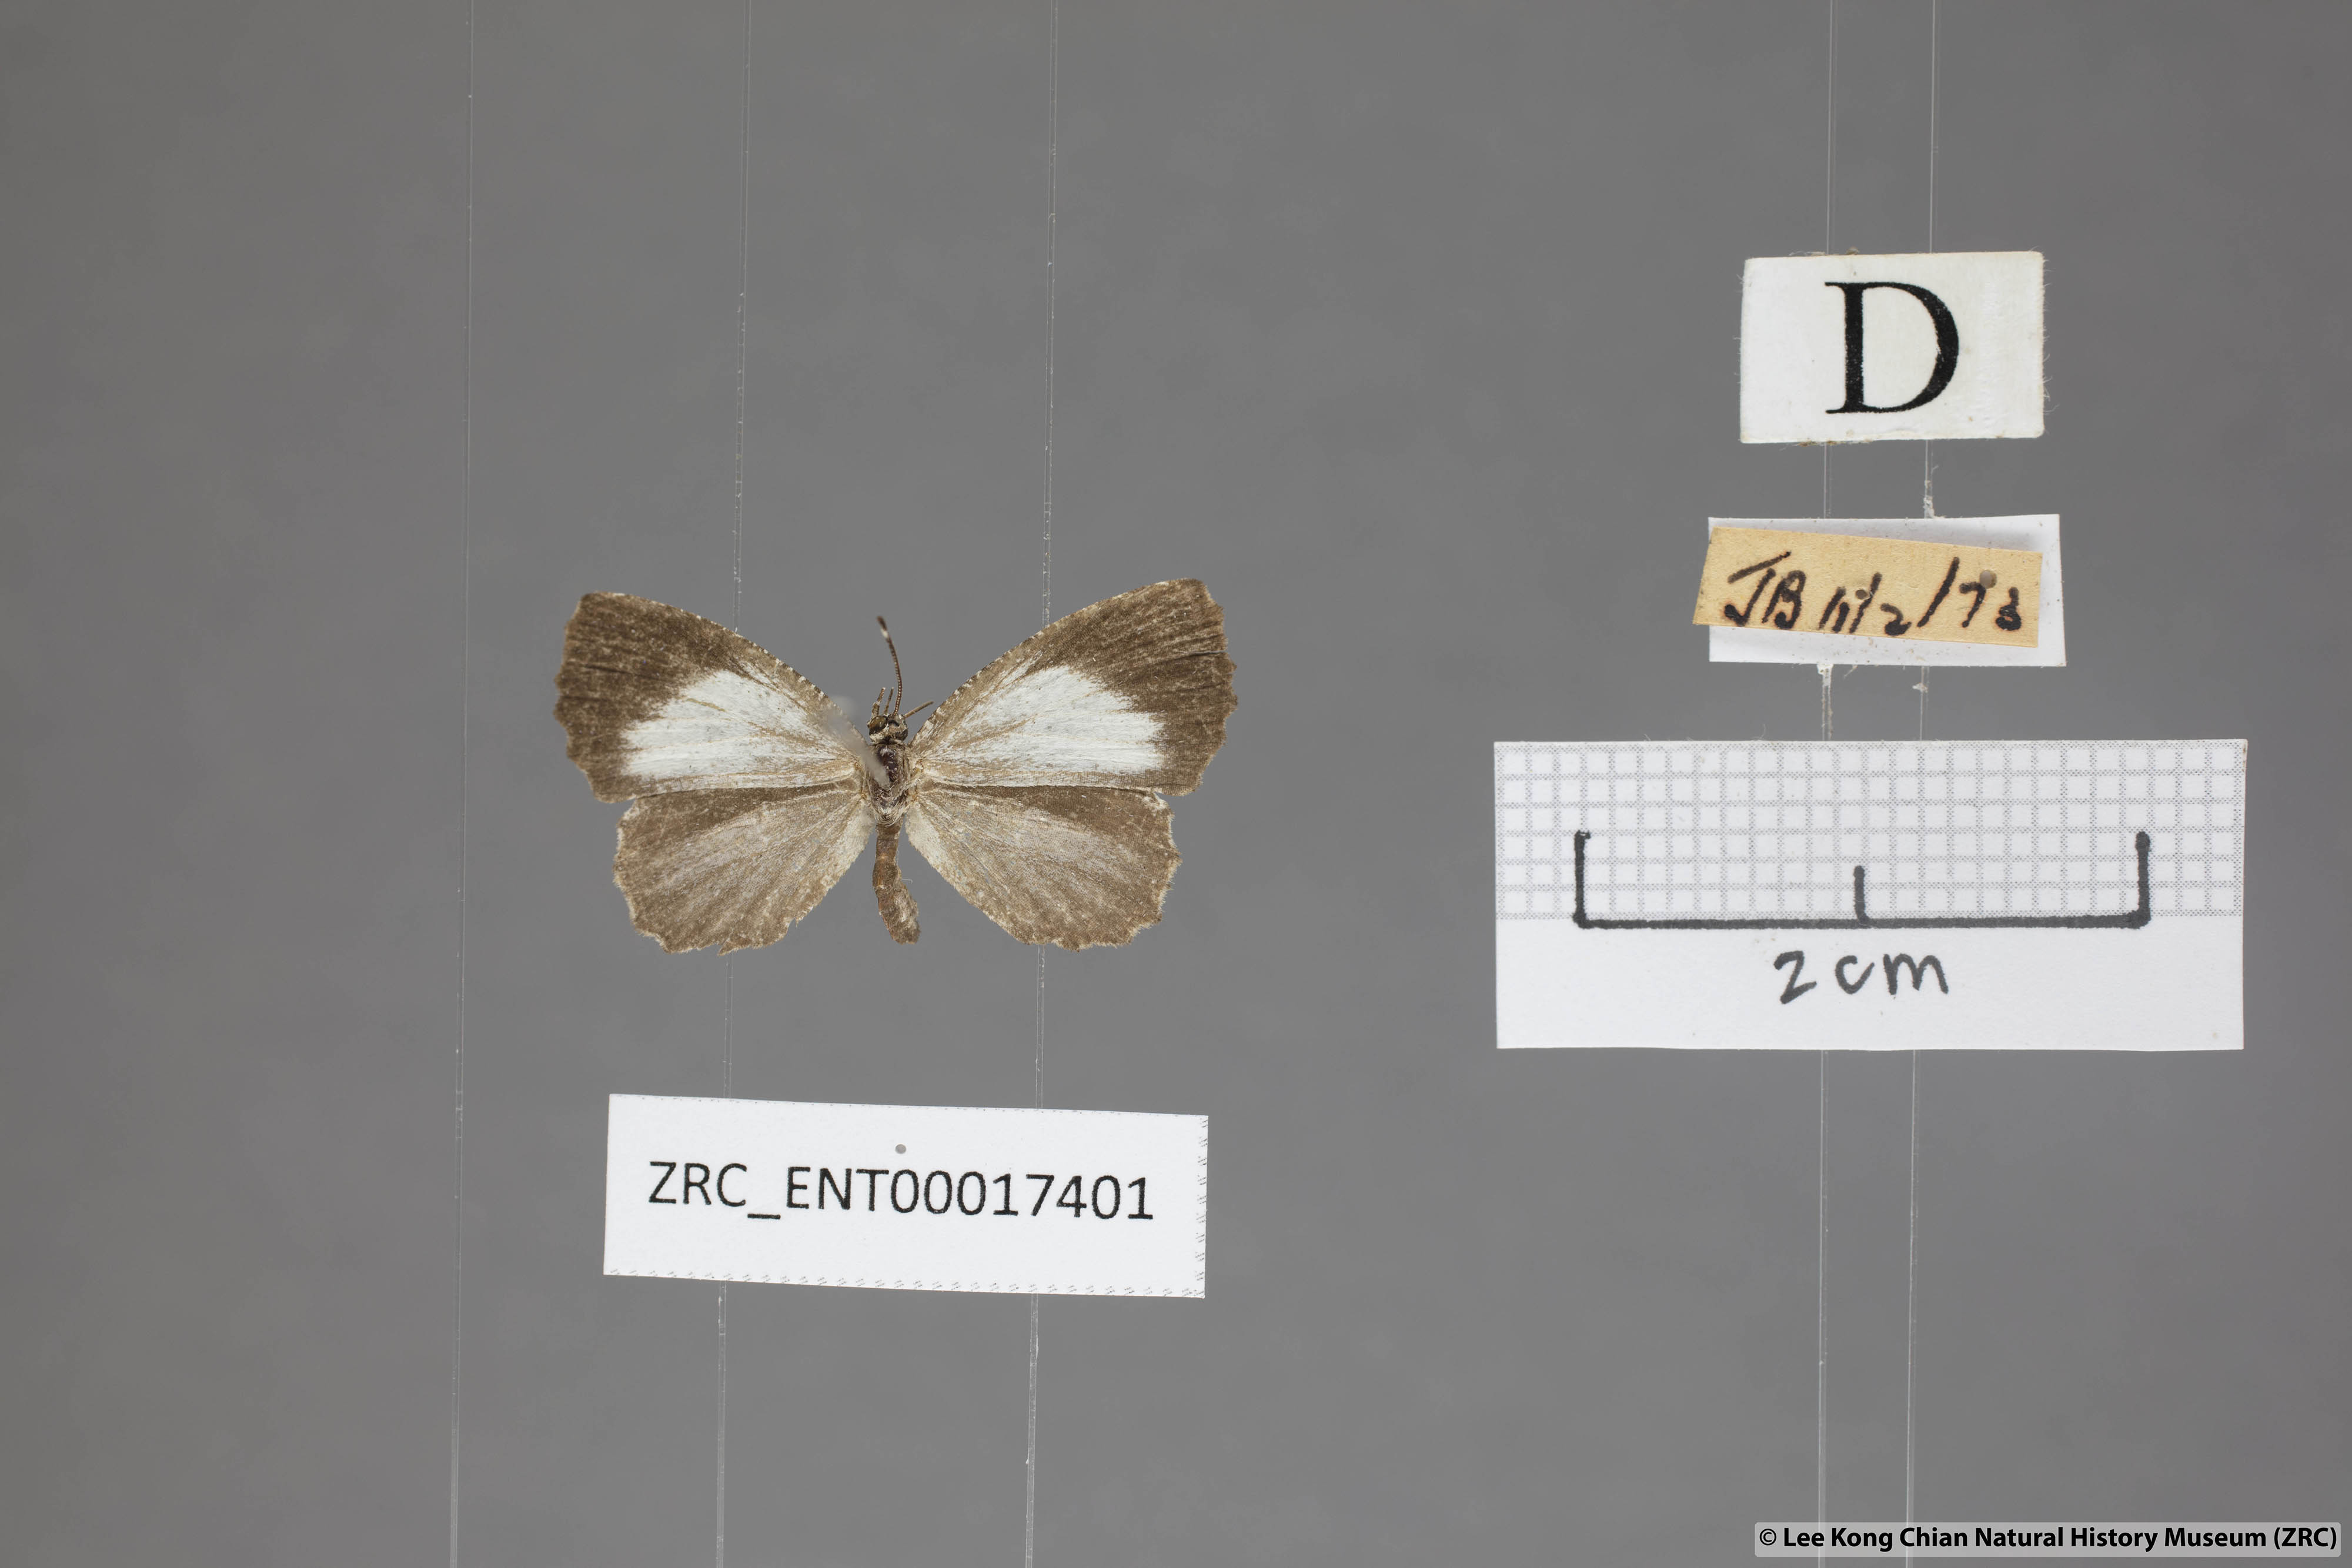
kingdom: Animalia
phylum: Arthropoda
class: Insecta
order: Lepidoptera
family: Lycaenidae
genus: Logania
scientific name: Logania marmorata
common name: Pale mottle
